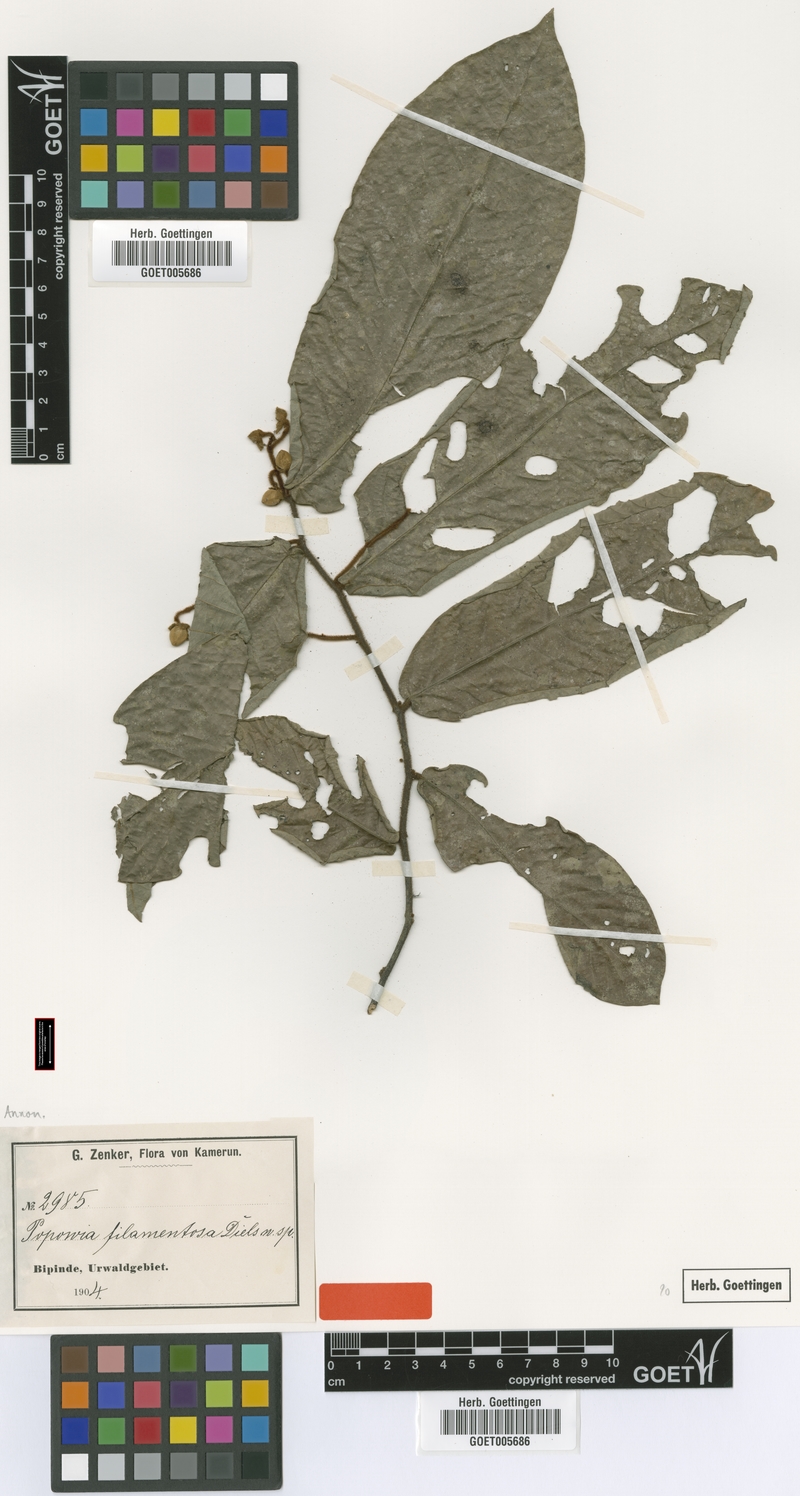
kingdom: Plantae
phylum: Tracheophyta
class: Magnoliopsida
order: Magnoliales
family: Annonaceae
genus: Monanthotaxis
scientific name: Monanthotaxis filamentosa
